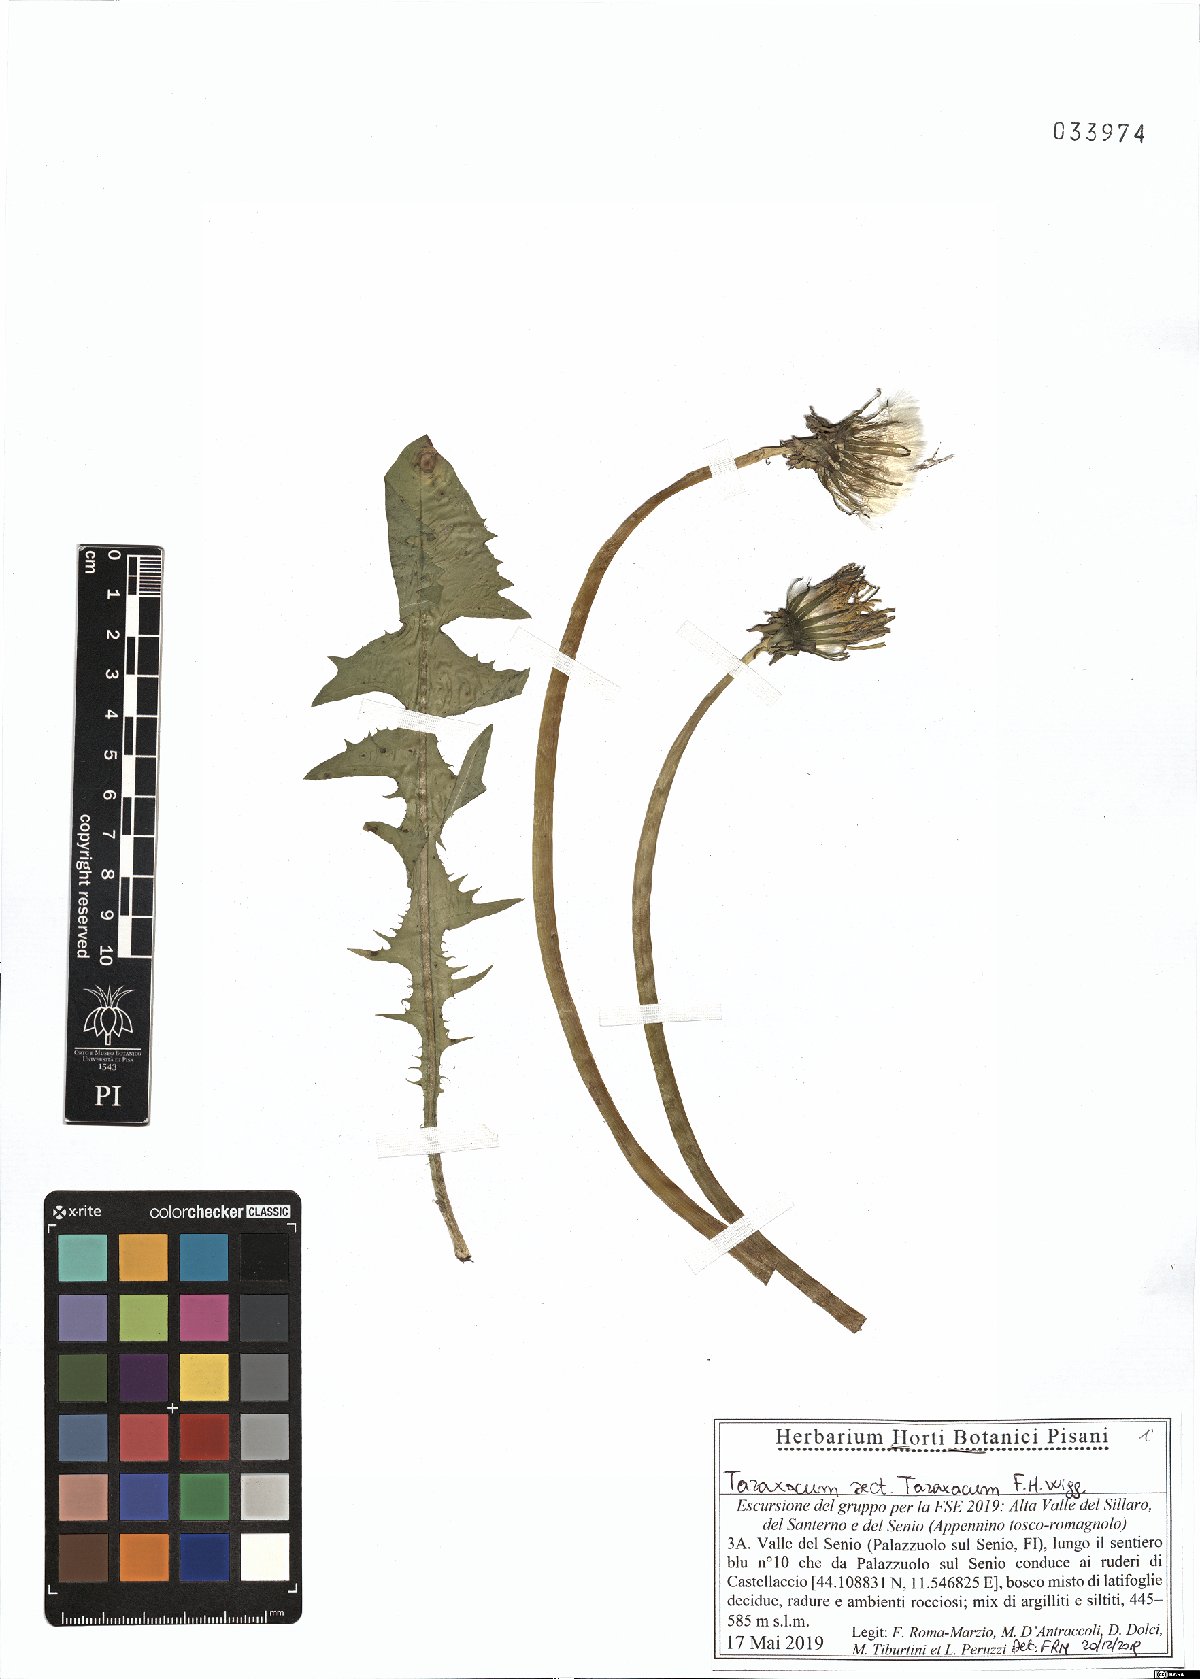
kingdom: Plantae
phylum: Tracheophyta
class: Magnoliopsida
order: Asterales
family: Asteraceae
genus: Taraxacum
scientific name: Taraxacum officinale
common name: Common dandelion
